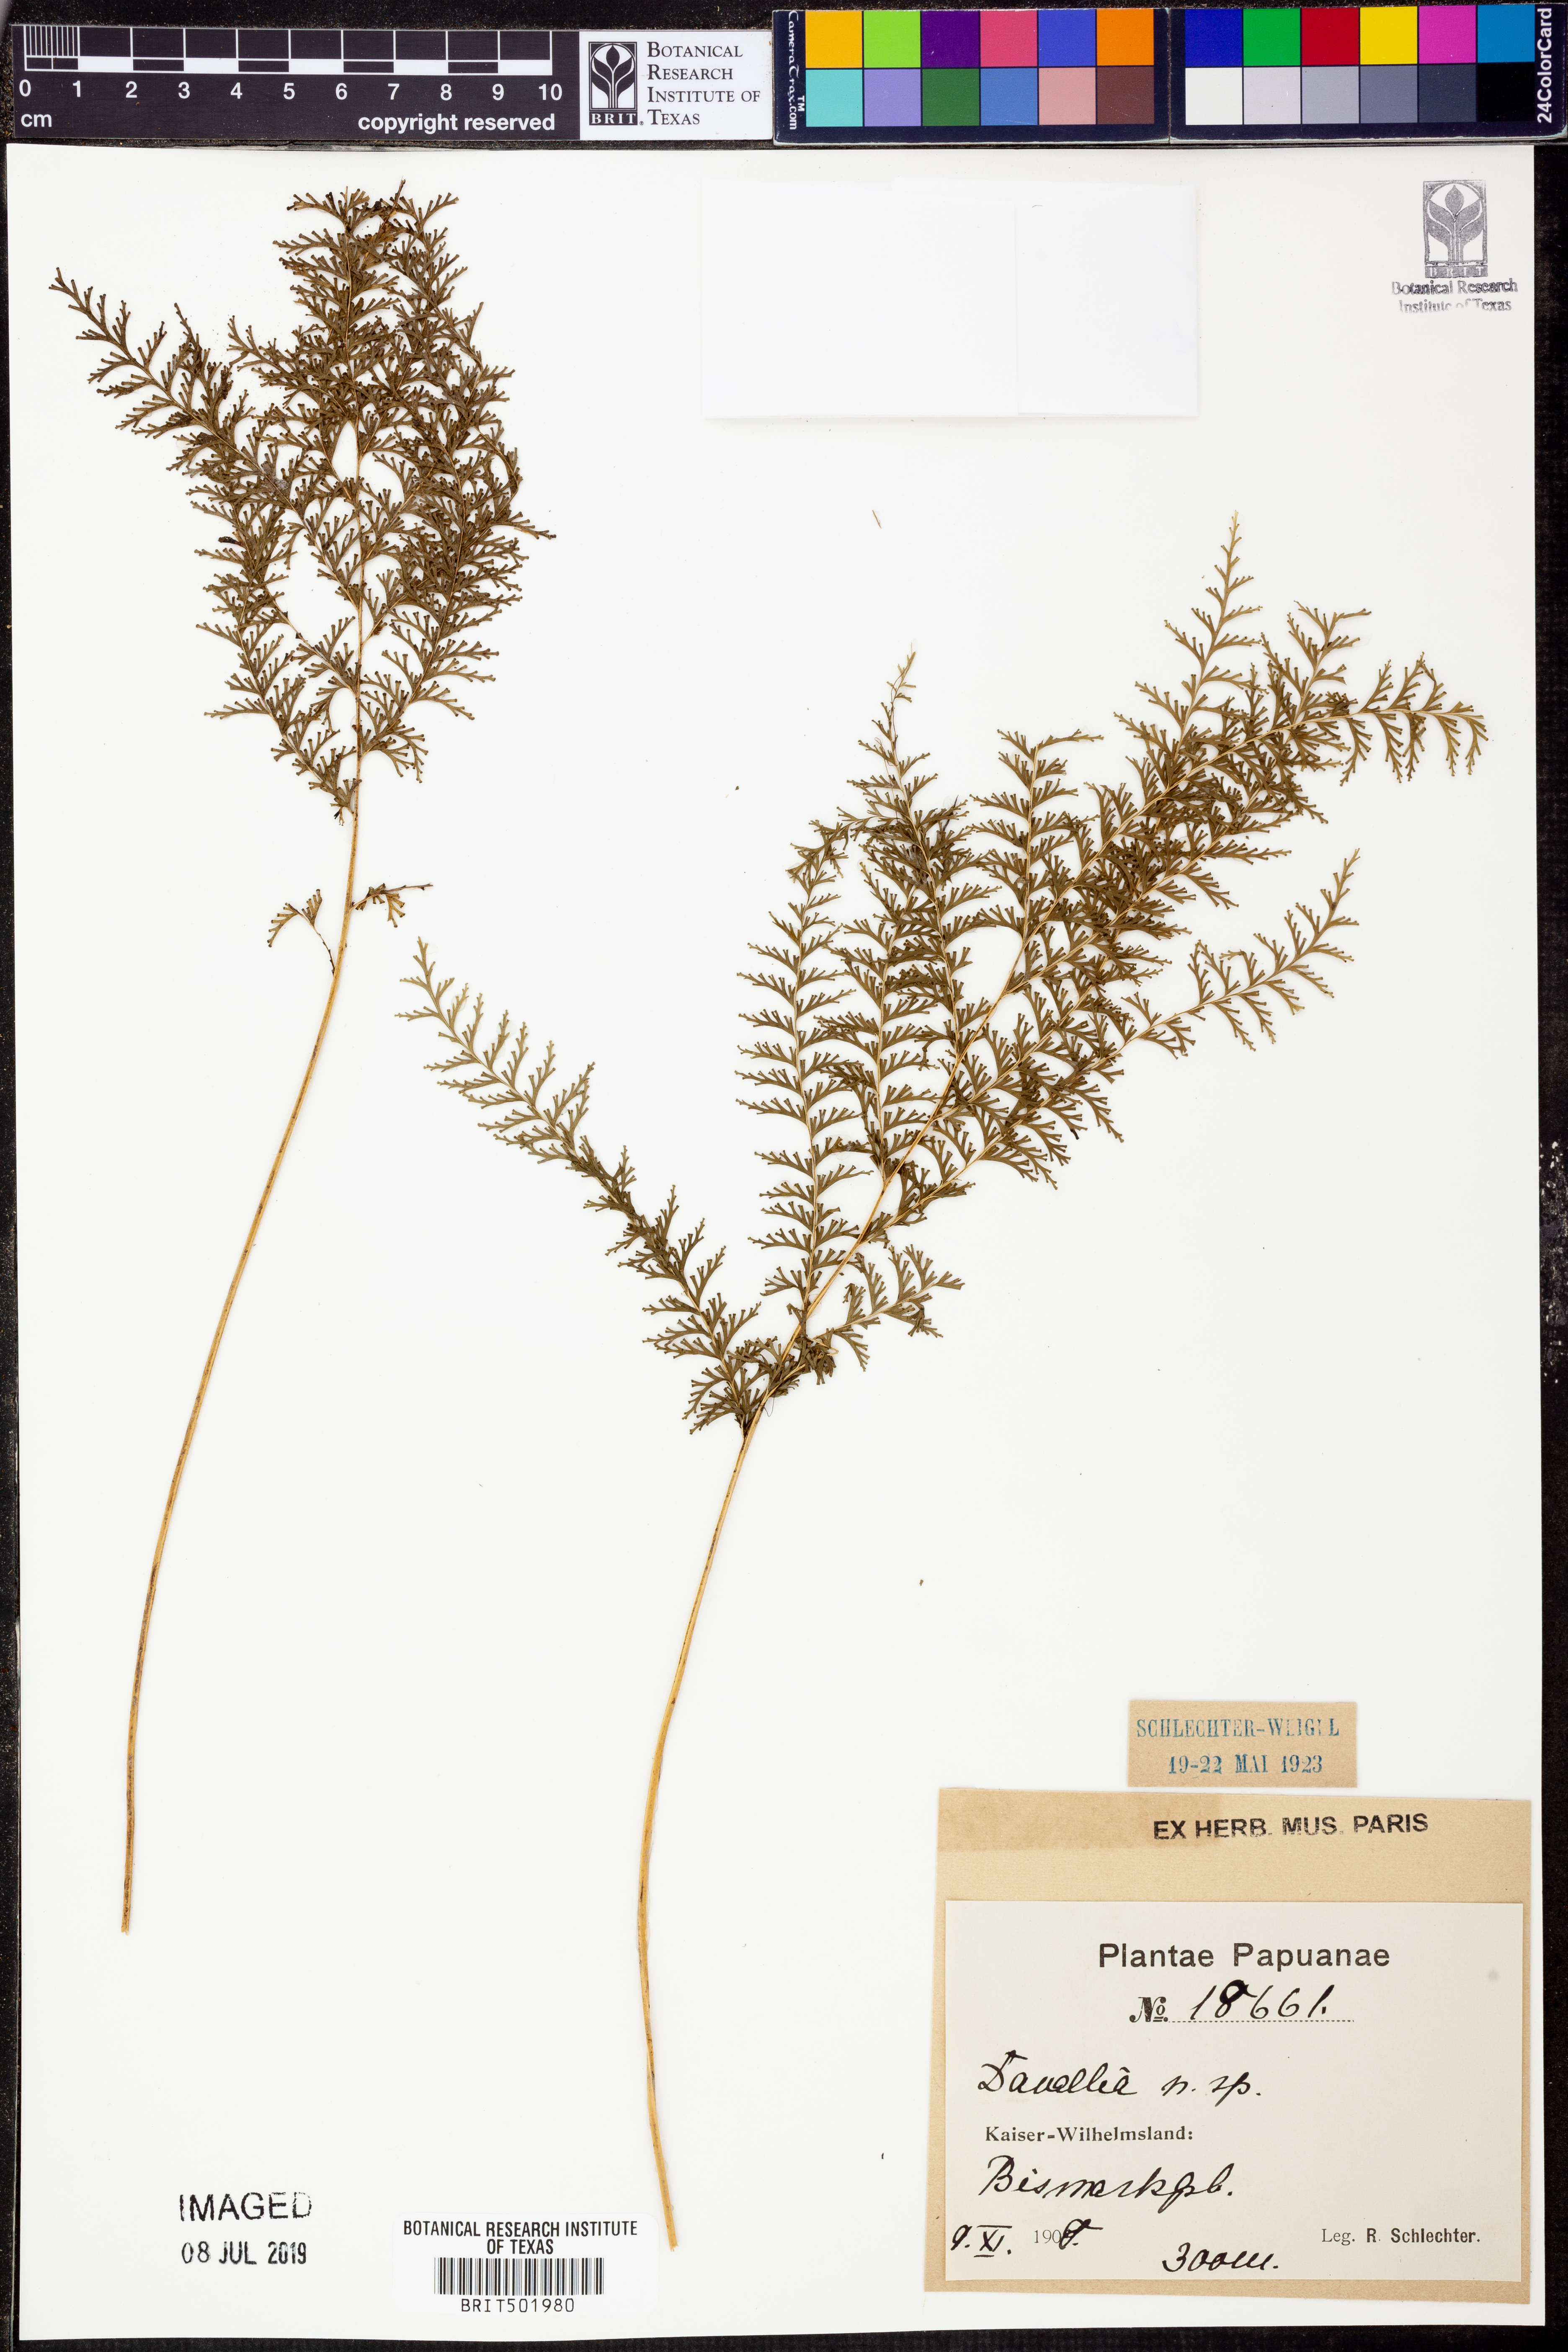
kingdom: Plantae
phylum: Tracheophyta
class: Polypodiopsida
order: Polypodiales
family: Davalliaceae
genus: Davallia
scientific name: Davallia
